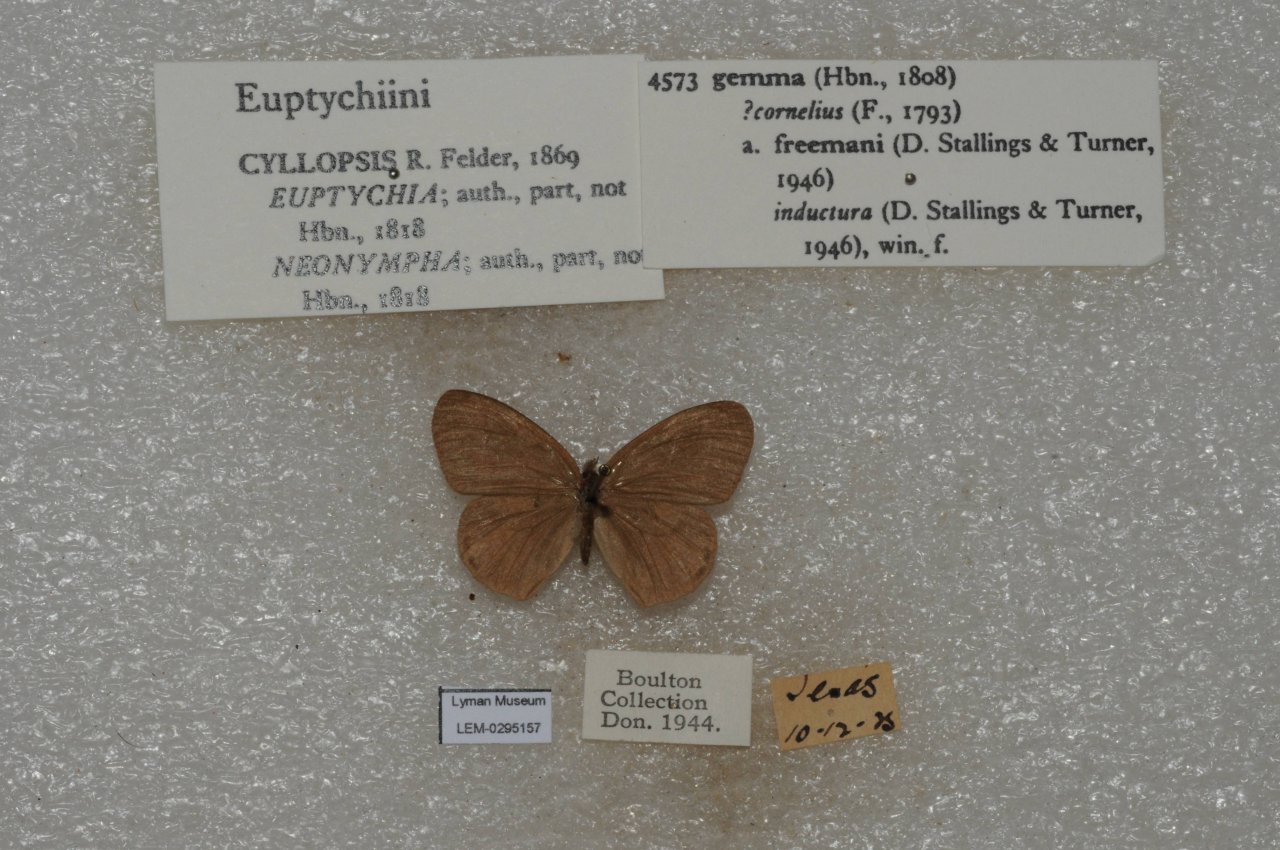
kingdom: Animalia
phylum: Arthropoda
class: Insecta
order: Lepidoptera
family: Nymphalidae
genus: Euptychia
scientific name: Euptychia cornelius
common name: Gemmed Satyr
